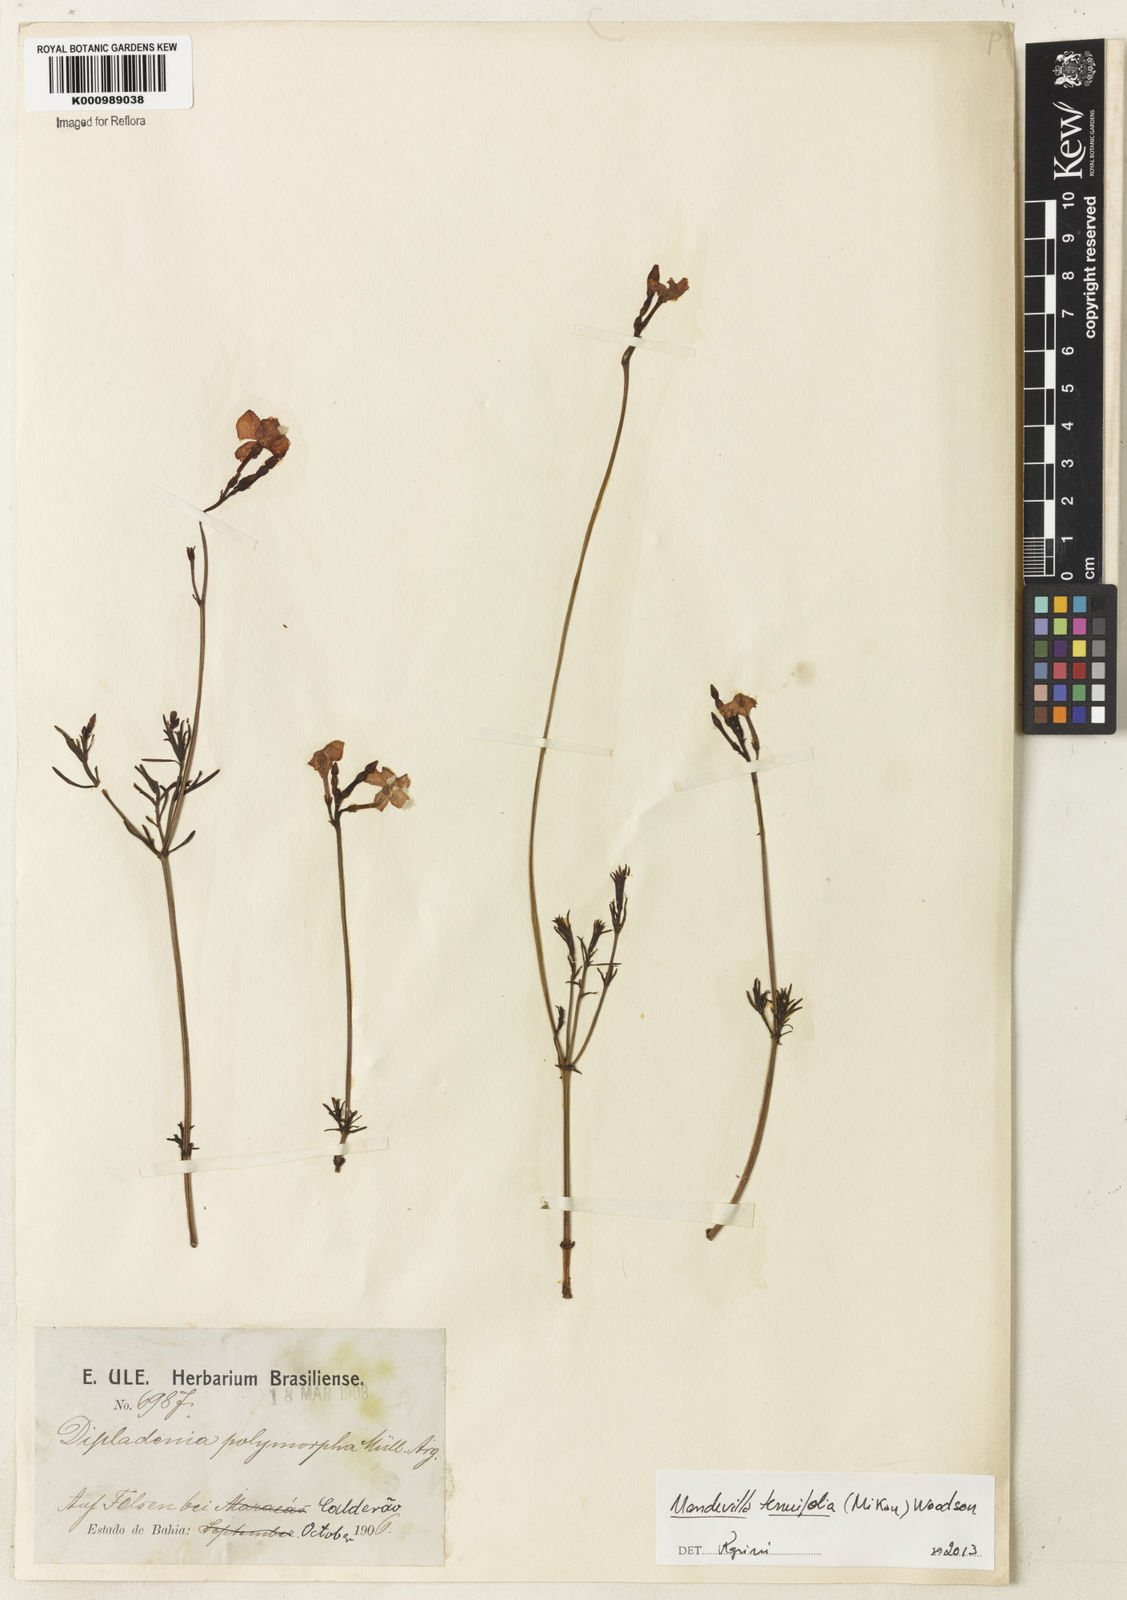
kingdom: Plantae
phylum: Tracheophyta
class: Magnoliopsida
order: Gentianales
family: Apocynaceae
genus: Mandevilla
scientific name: Mandevilla tenuifolia
